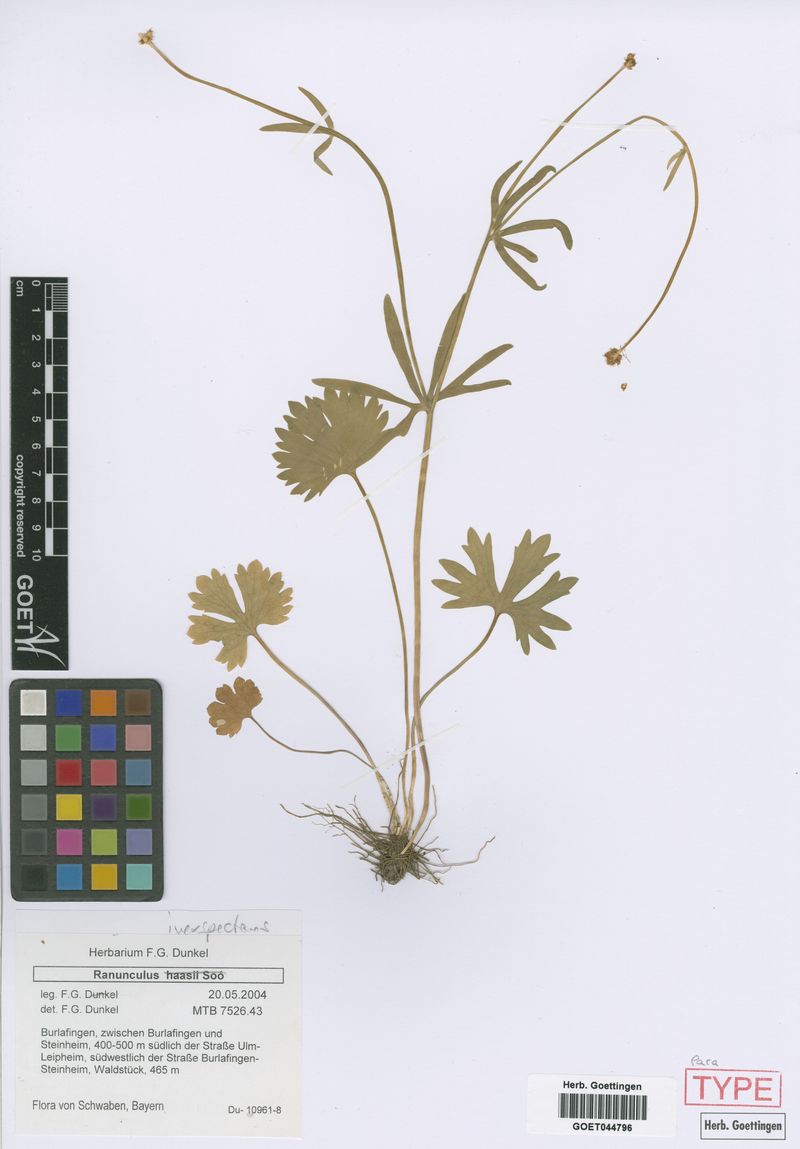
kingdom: Plantae
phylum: Tracheophyta
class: Magnoliopsida
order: Ranunculales
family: Ranunculaceae
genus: Ranunculus
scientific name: Ranunculus inexspectans
